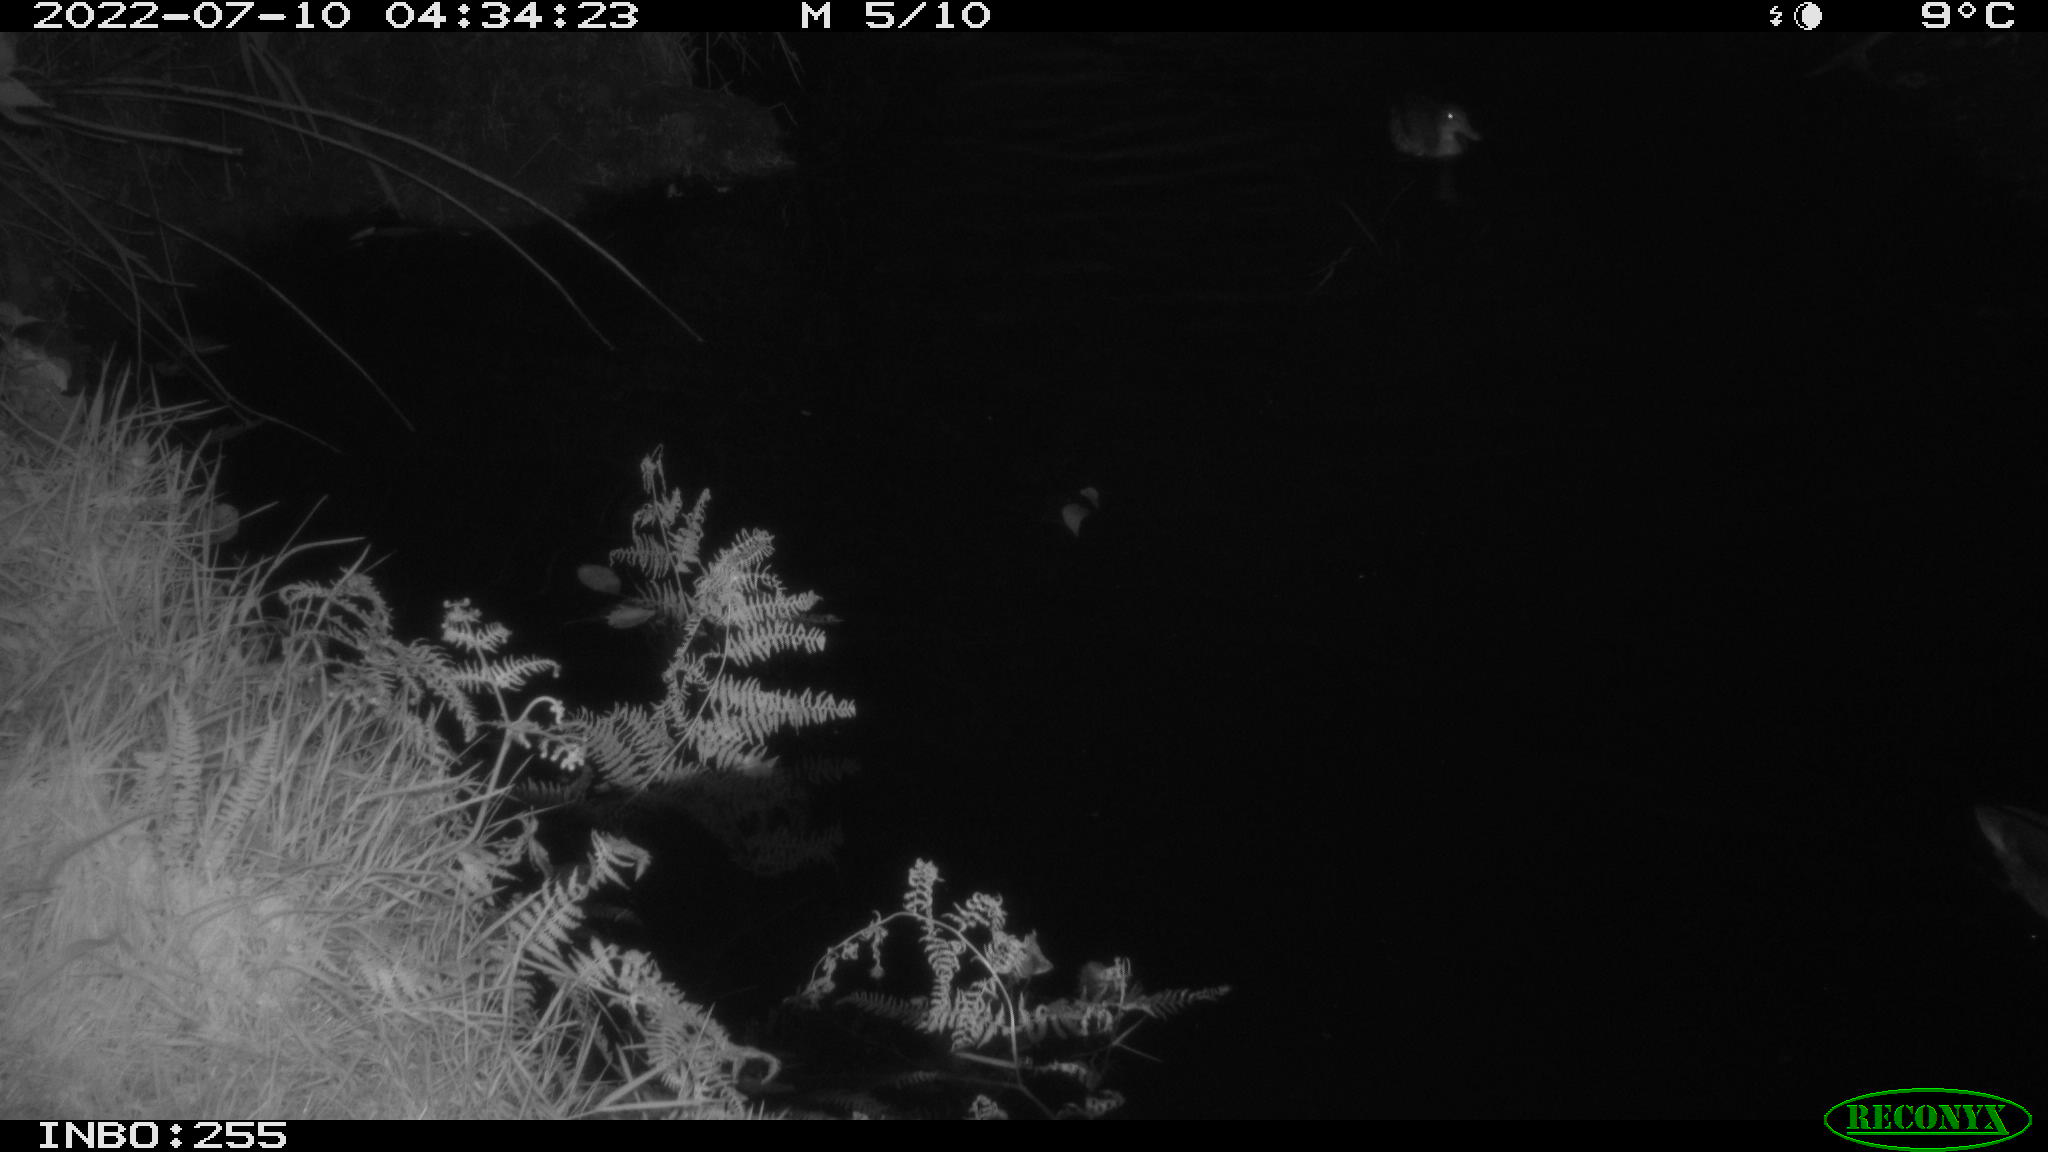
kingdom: Animalia
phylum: Chordata
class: Aves
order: Anseriformes
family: Anatidae
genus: Anas
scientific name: Anas platyrhynchos
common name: Mallard
